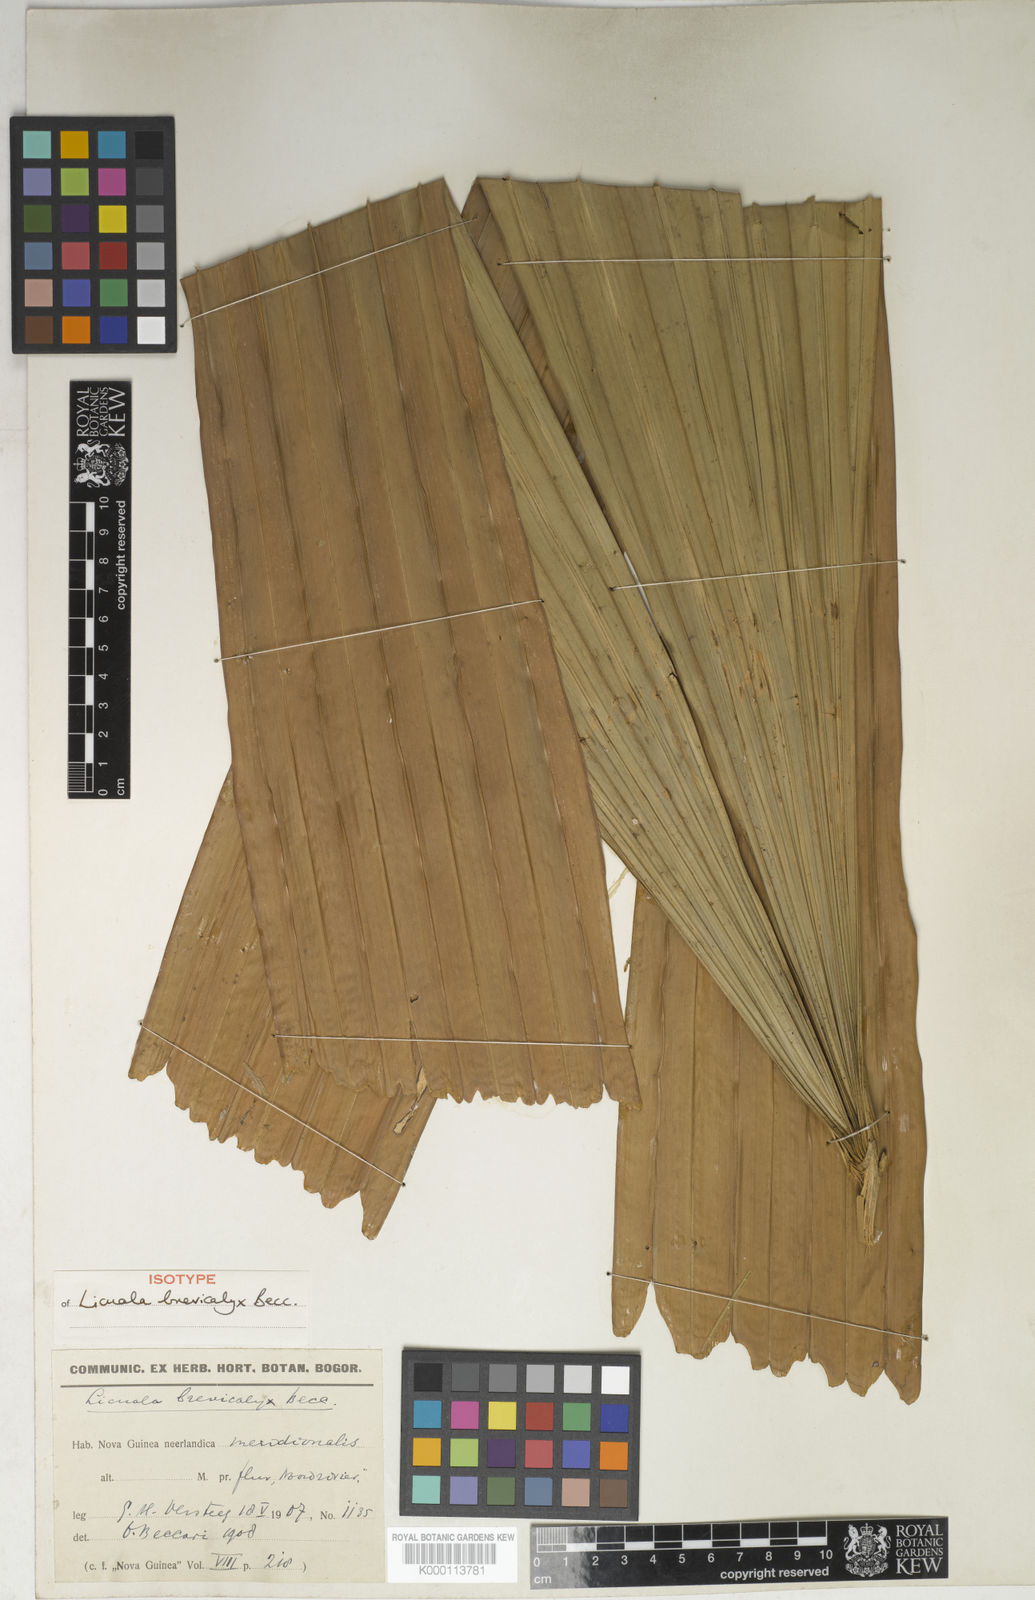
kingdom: Plantae
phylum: Tracheophyta
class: Liliopsida
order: Arecales
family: Arecaceae
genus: Licuala
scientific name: Licuala brevicalyx
